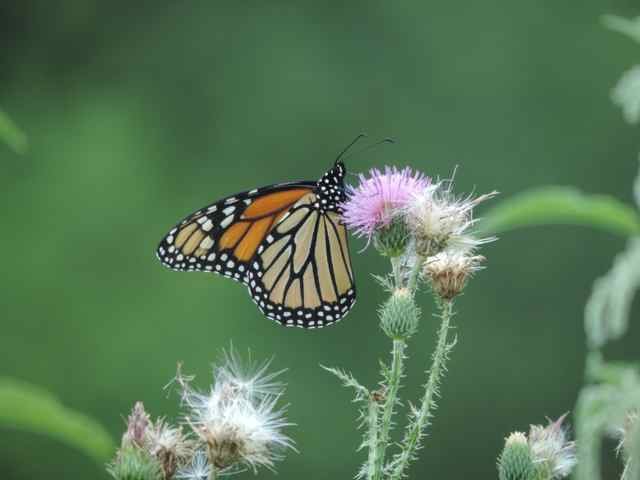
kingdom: Animalia
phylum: Arthropoda
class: Insecta
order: Lepidoptera
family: Nymphalidae
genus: Danaus
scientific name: Danaus plexippus
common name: Monarch
